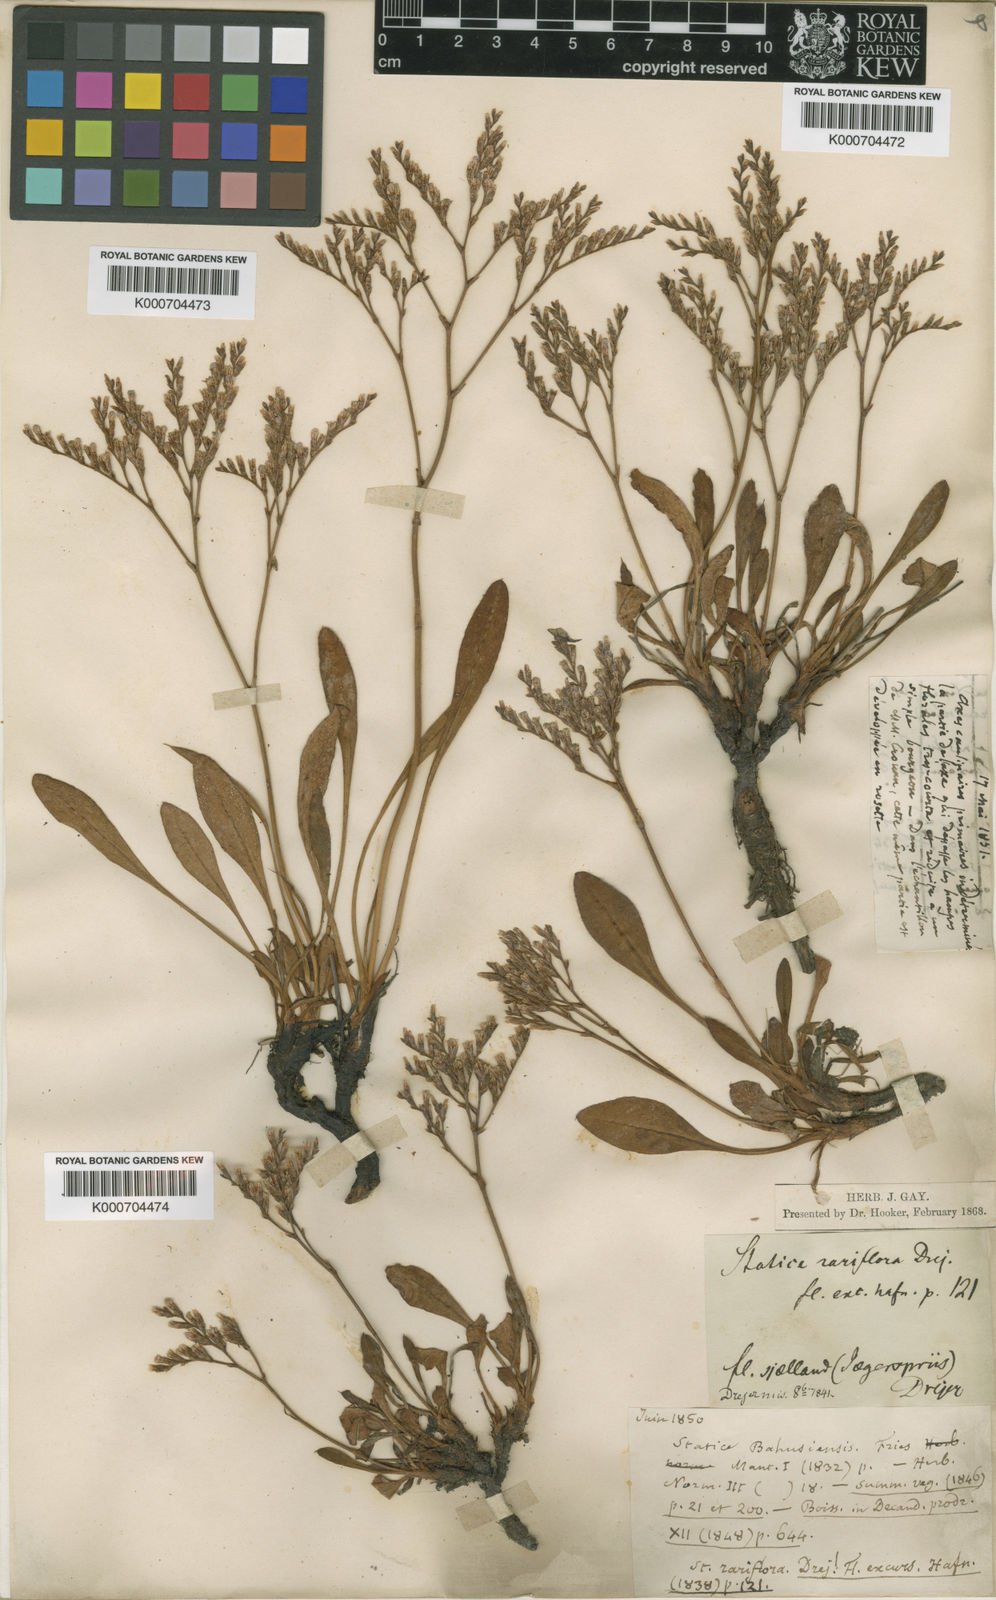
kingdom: Plantae
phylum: Tracheophyta
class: Magnoliopsida
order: Caryophyllales
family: Plumbaginaceae
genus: Limonium
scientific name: Limonium humile
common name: Lax-flowered sea-lavender
